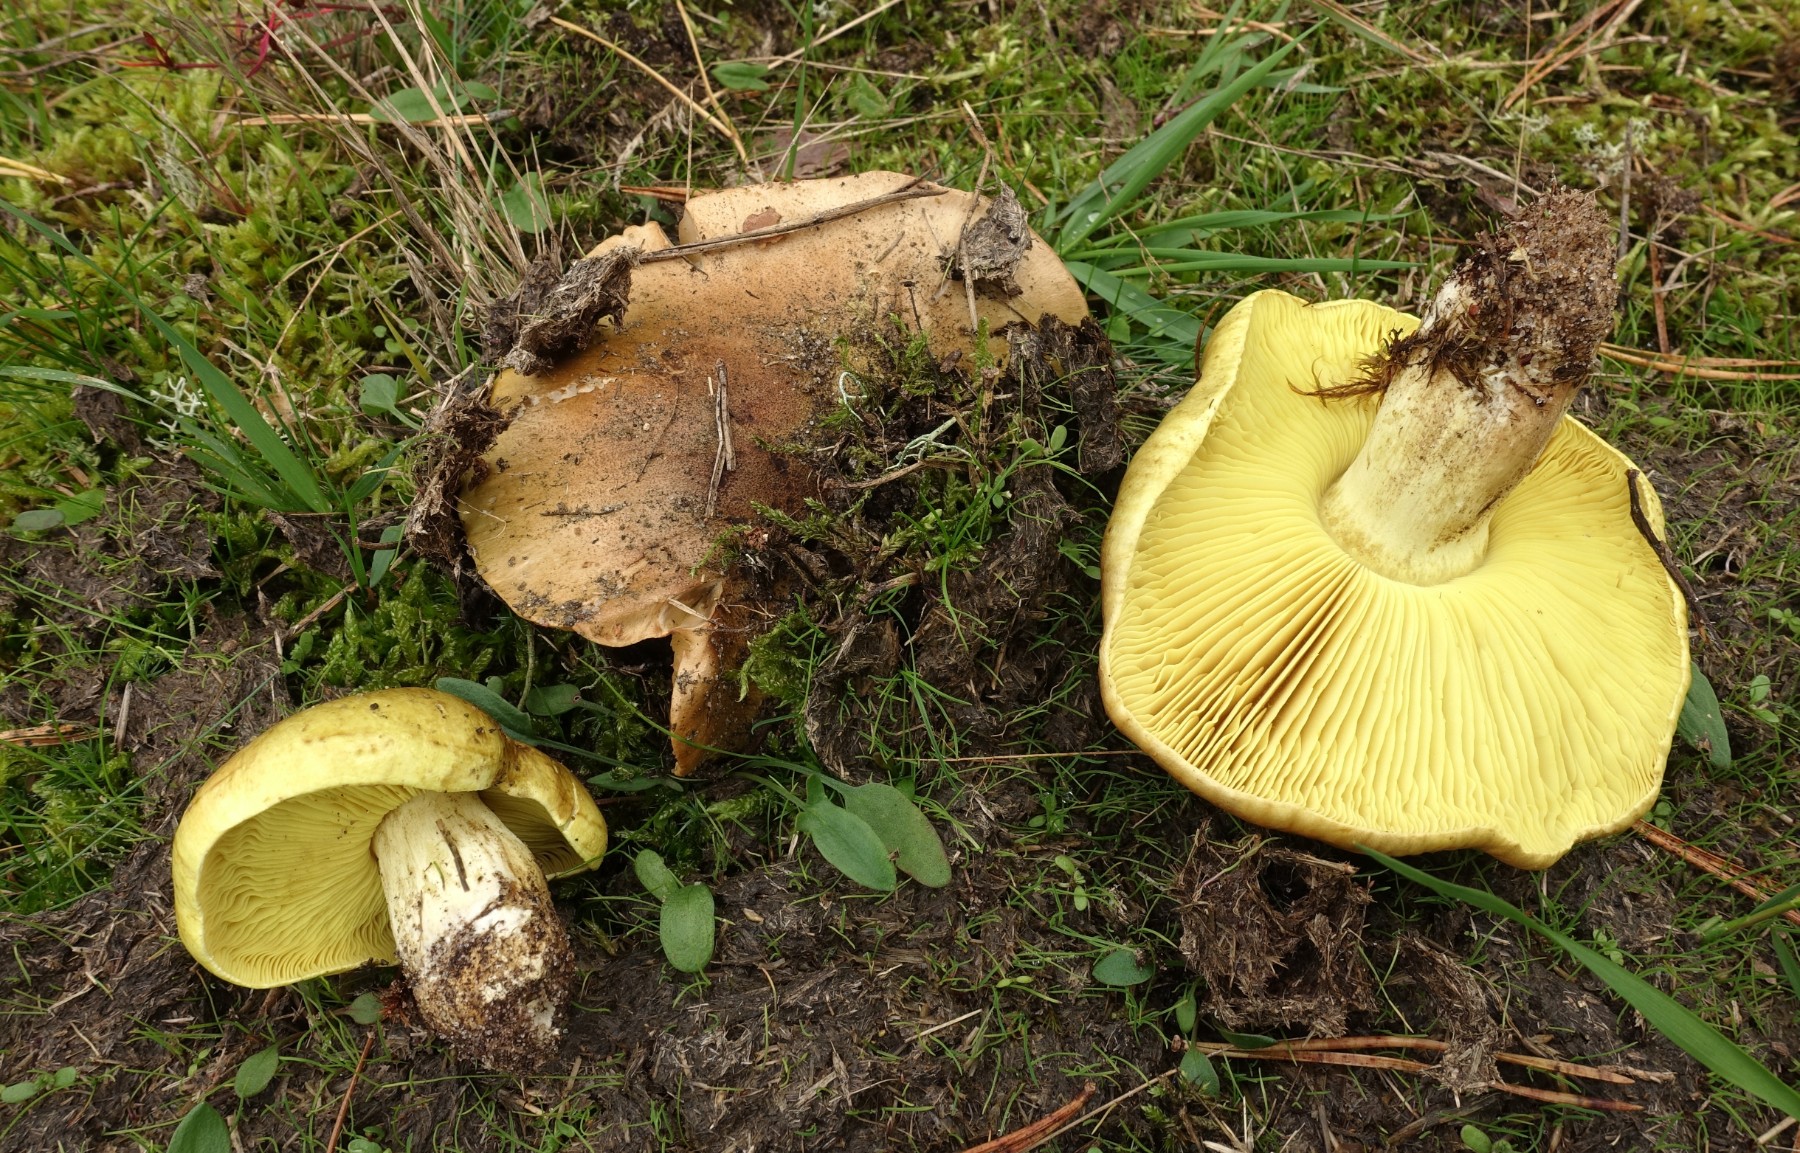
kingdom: Fungi
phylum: Basidiomycota
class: Agaricomycetes
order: Agaricales
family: Tricholomataceae
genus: Tricholoma
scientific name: Tricholoma equestre
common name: ægte ridderhat
